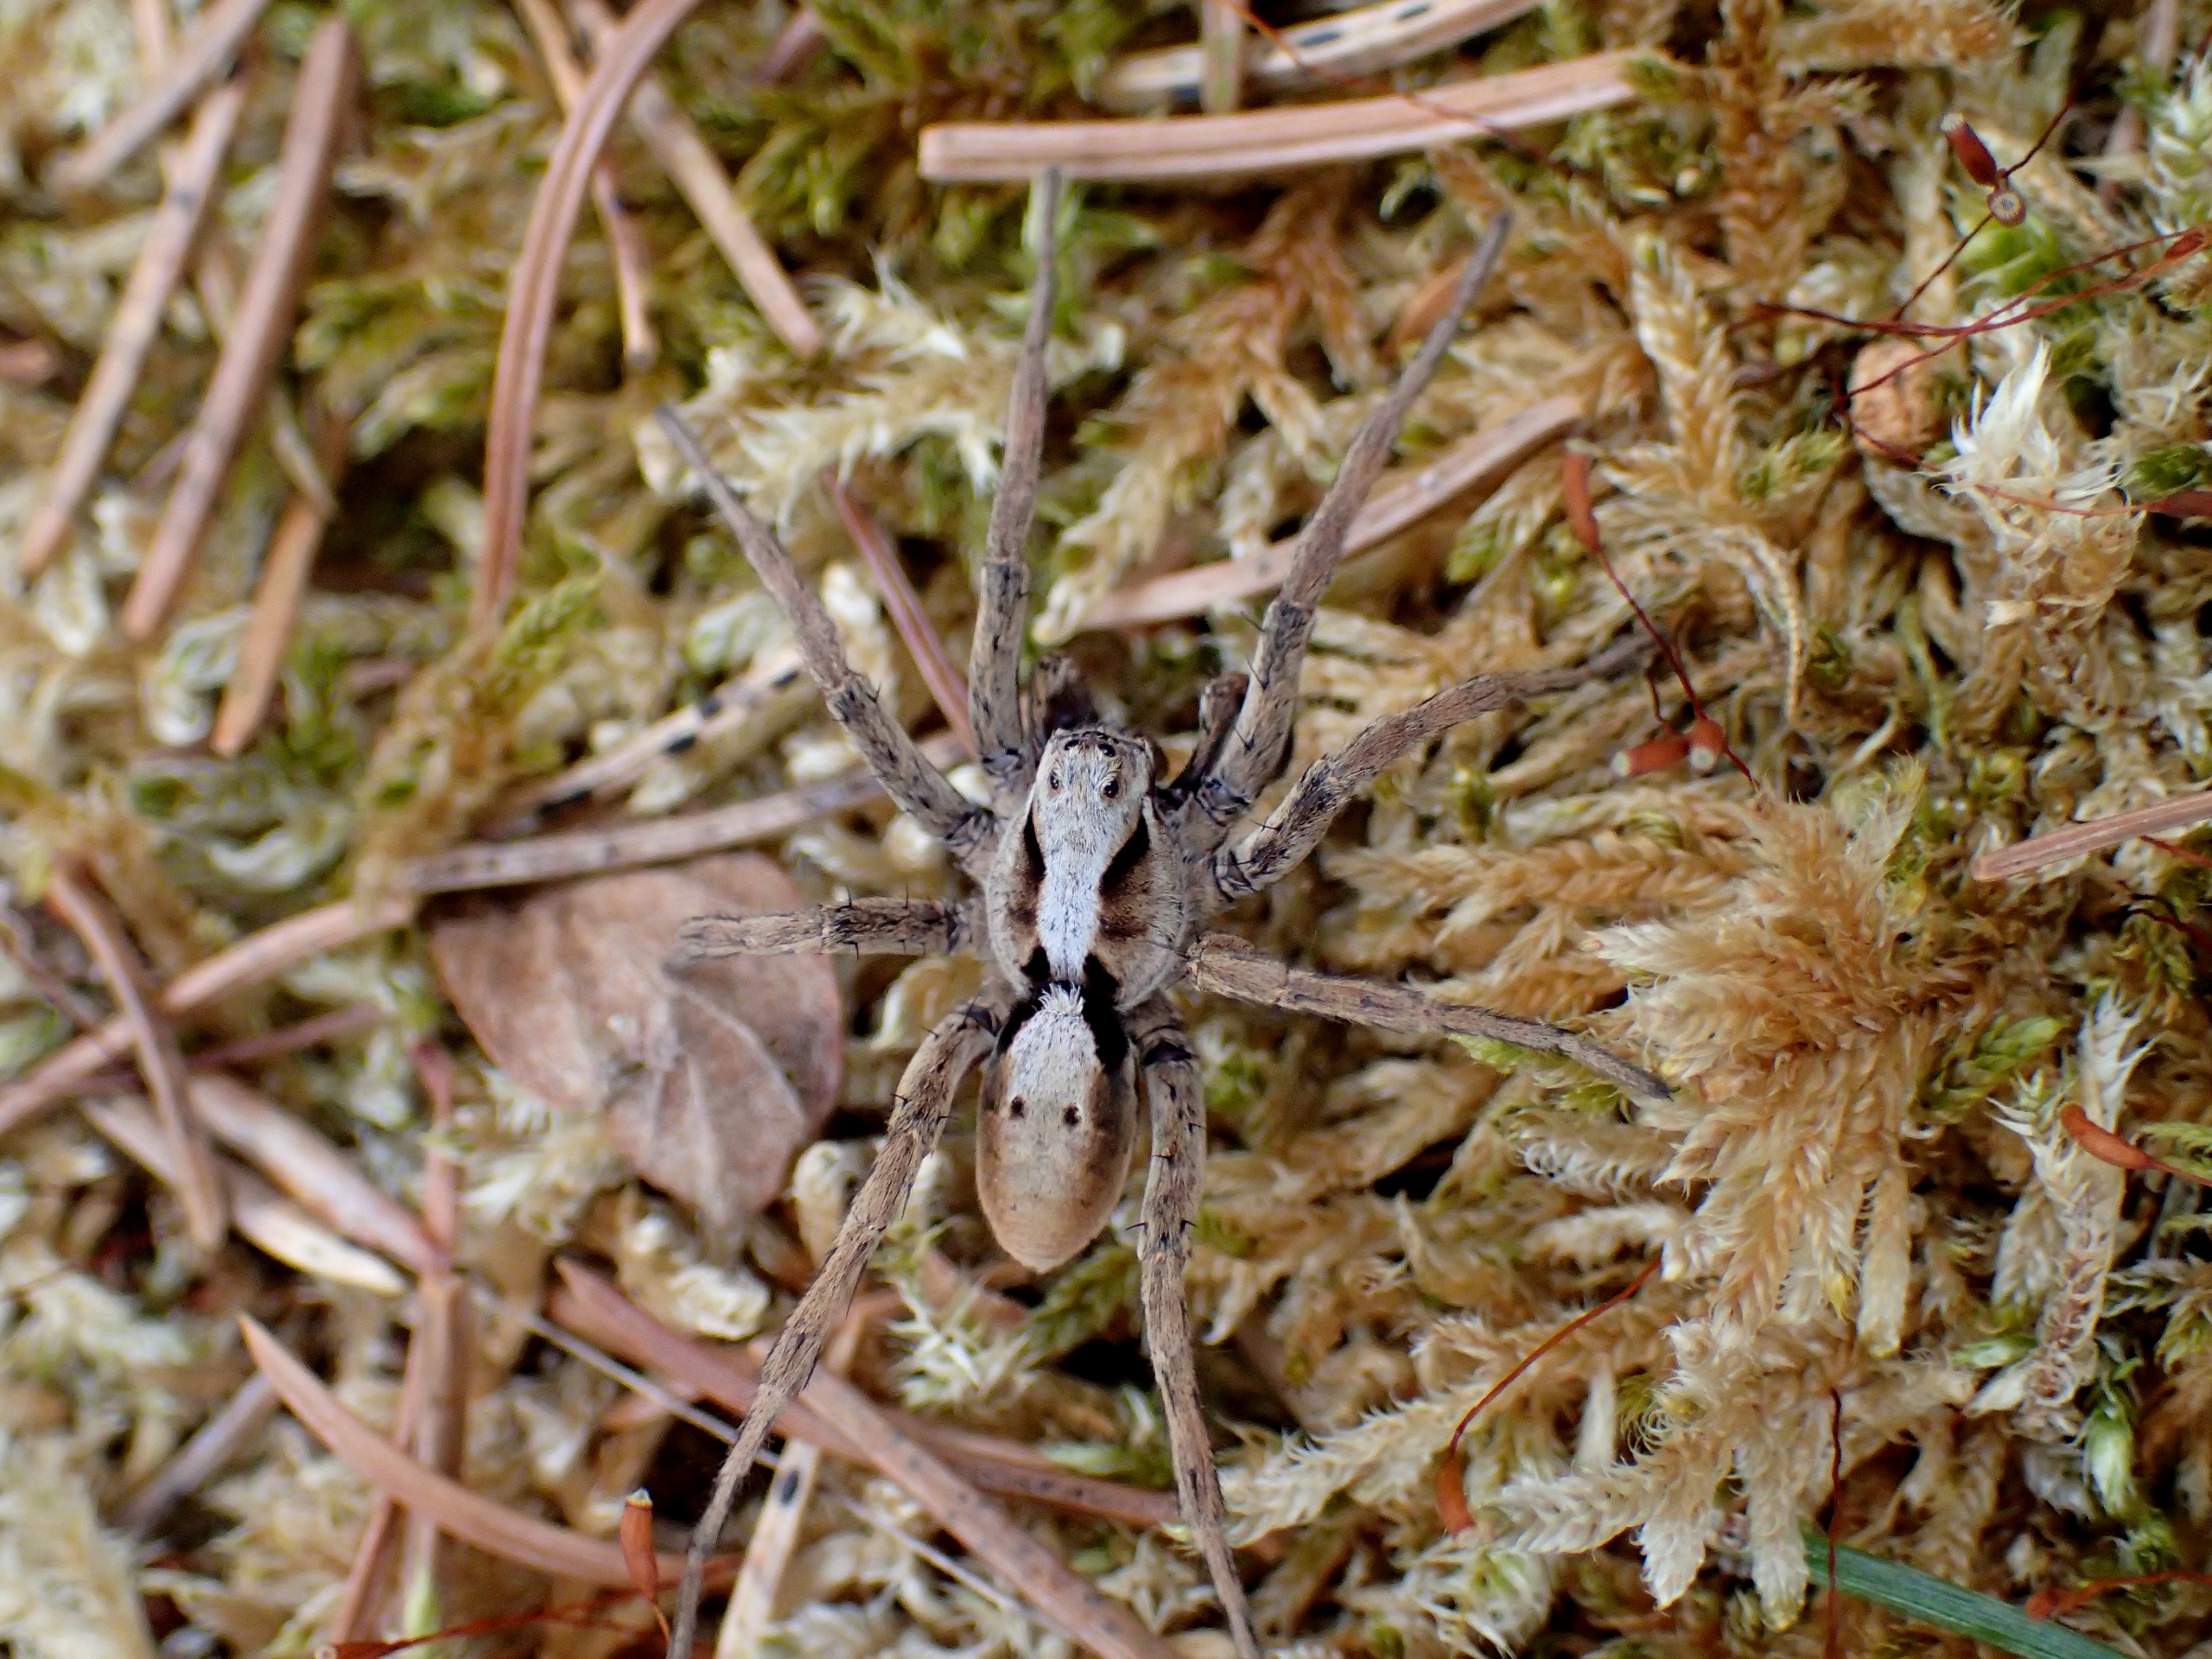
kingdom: Animalia
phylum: Arthropoda
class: Arachnida
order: Araneae
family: Lycosidae
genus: Alopecosa
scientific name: Alopecosa inquilina
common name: Stor kæmpejæger
